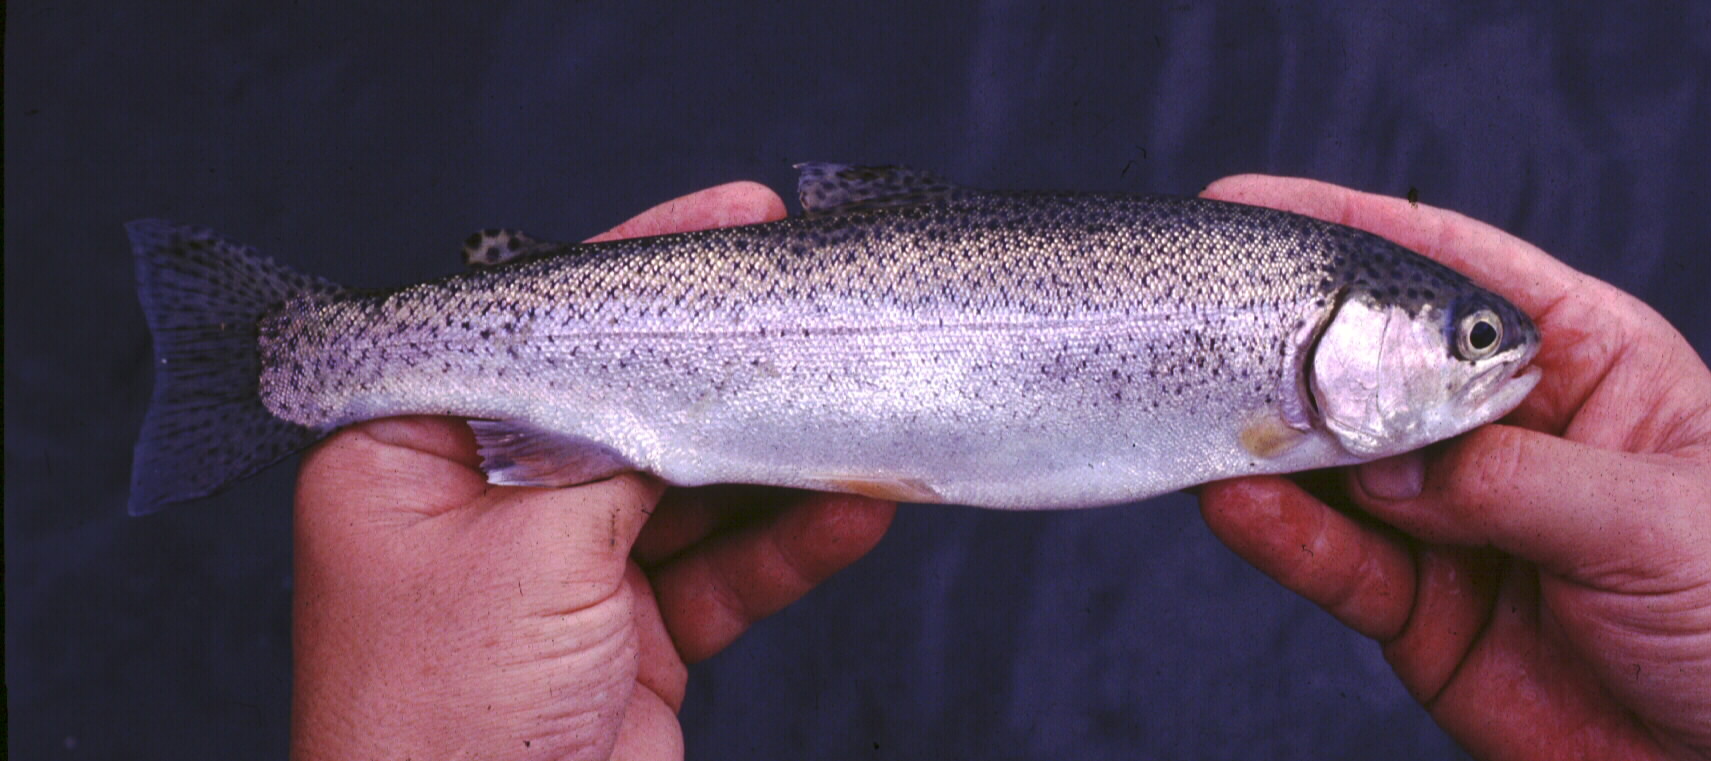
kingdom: Animalia
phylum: Chordata
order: Salmoniformes
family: Salmonidae
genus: Oncorhynchus
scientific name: Oncorhynchus mykiss
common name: Rainbow trout
